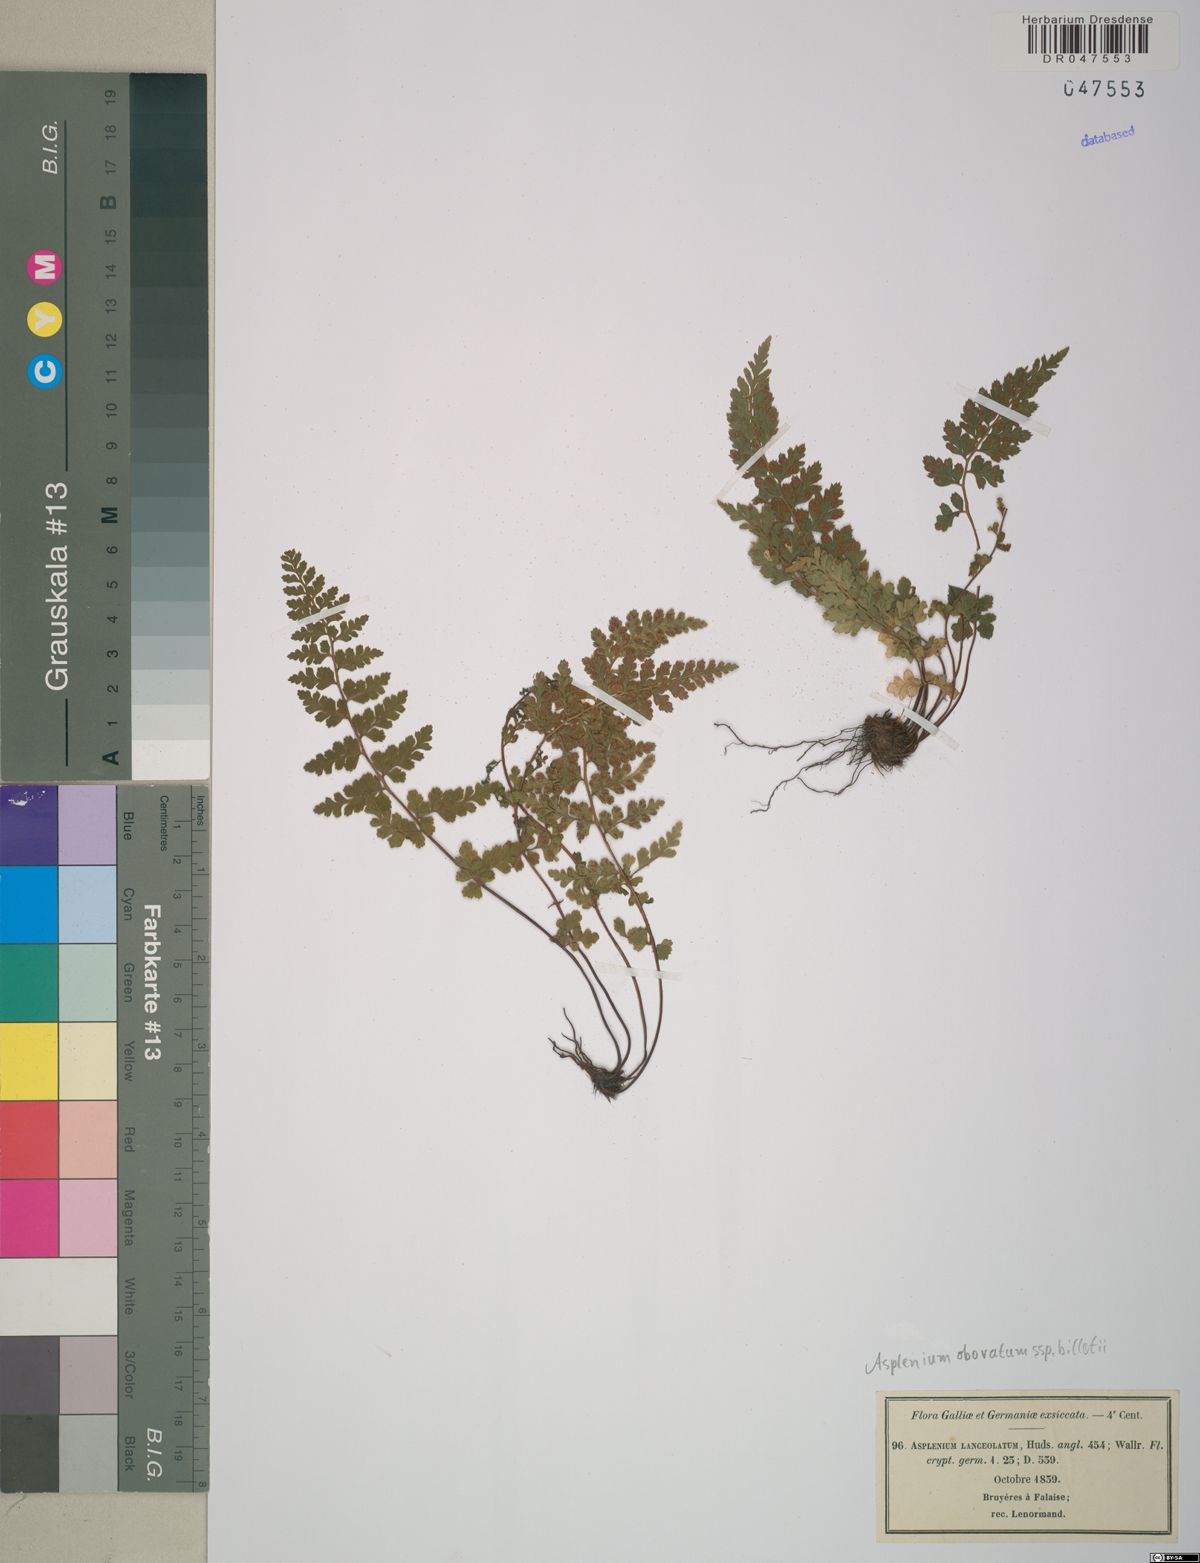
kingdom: Plantae
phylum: Tracheophyta
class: Polypodiopsida
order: Polypodiales
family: Aspleniaceae
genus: Asplenium
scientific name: Asplenium obovatum
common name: Lanceolate spleenwort
